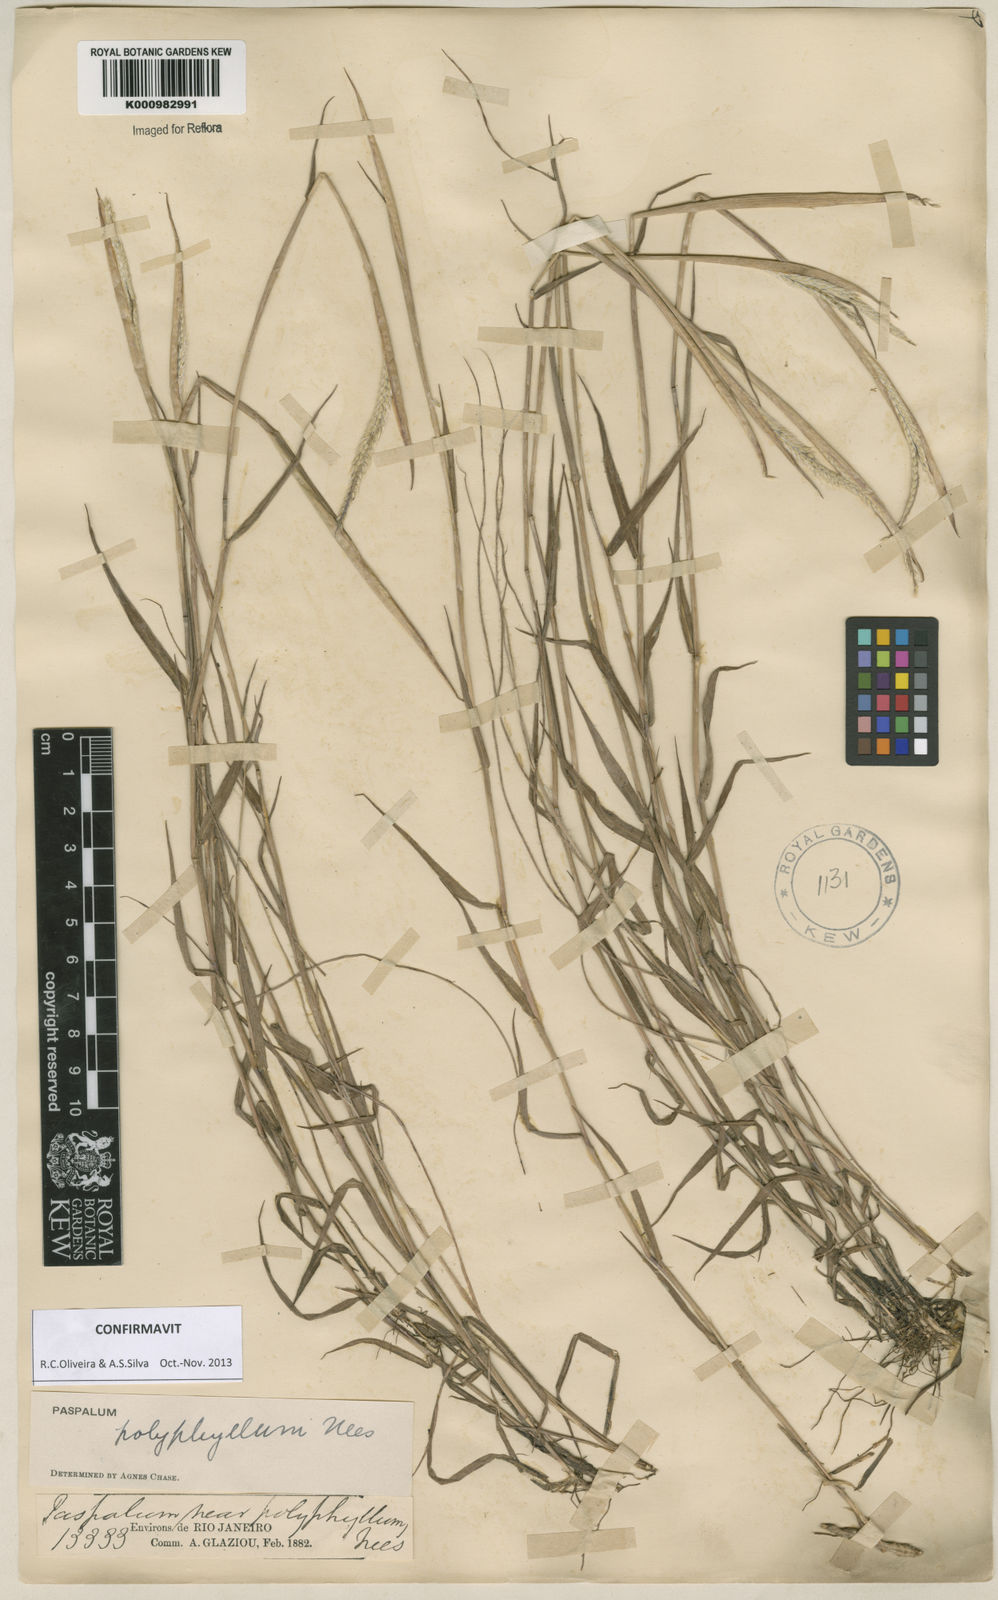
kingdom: Plantae
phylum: Tracheophyta
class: Liliopsida
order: Poales
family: Poaceae
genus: Paspalum
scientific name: Paspalum
